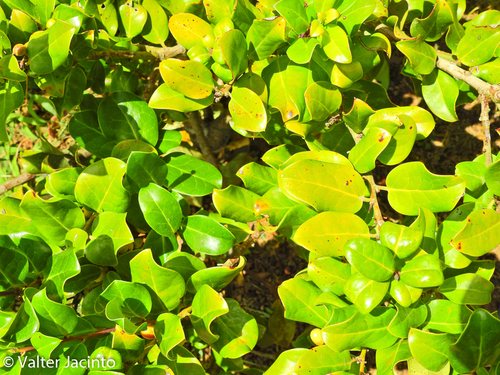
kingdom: Plantae
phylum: Tracheophyta
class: Magnoliopsida
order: Aquifoliales
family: Aquifoliaceae
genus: Ilex
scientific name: Ilex perado
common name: Madeira holly
